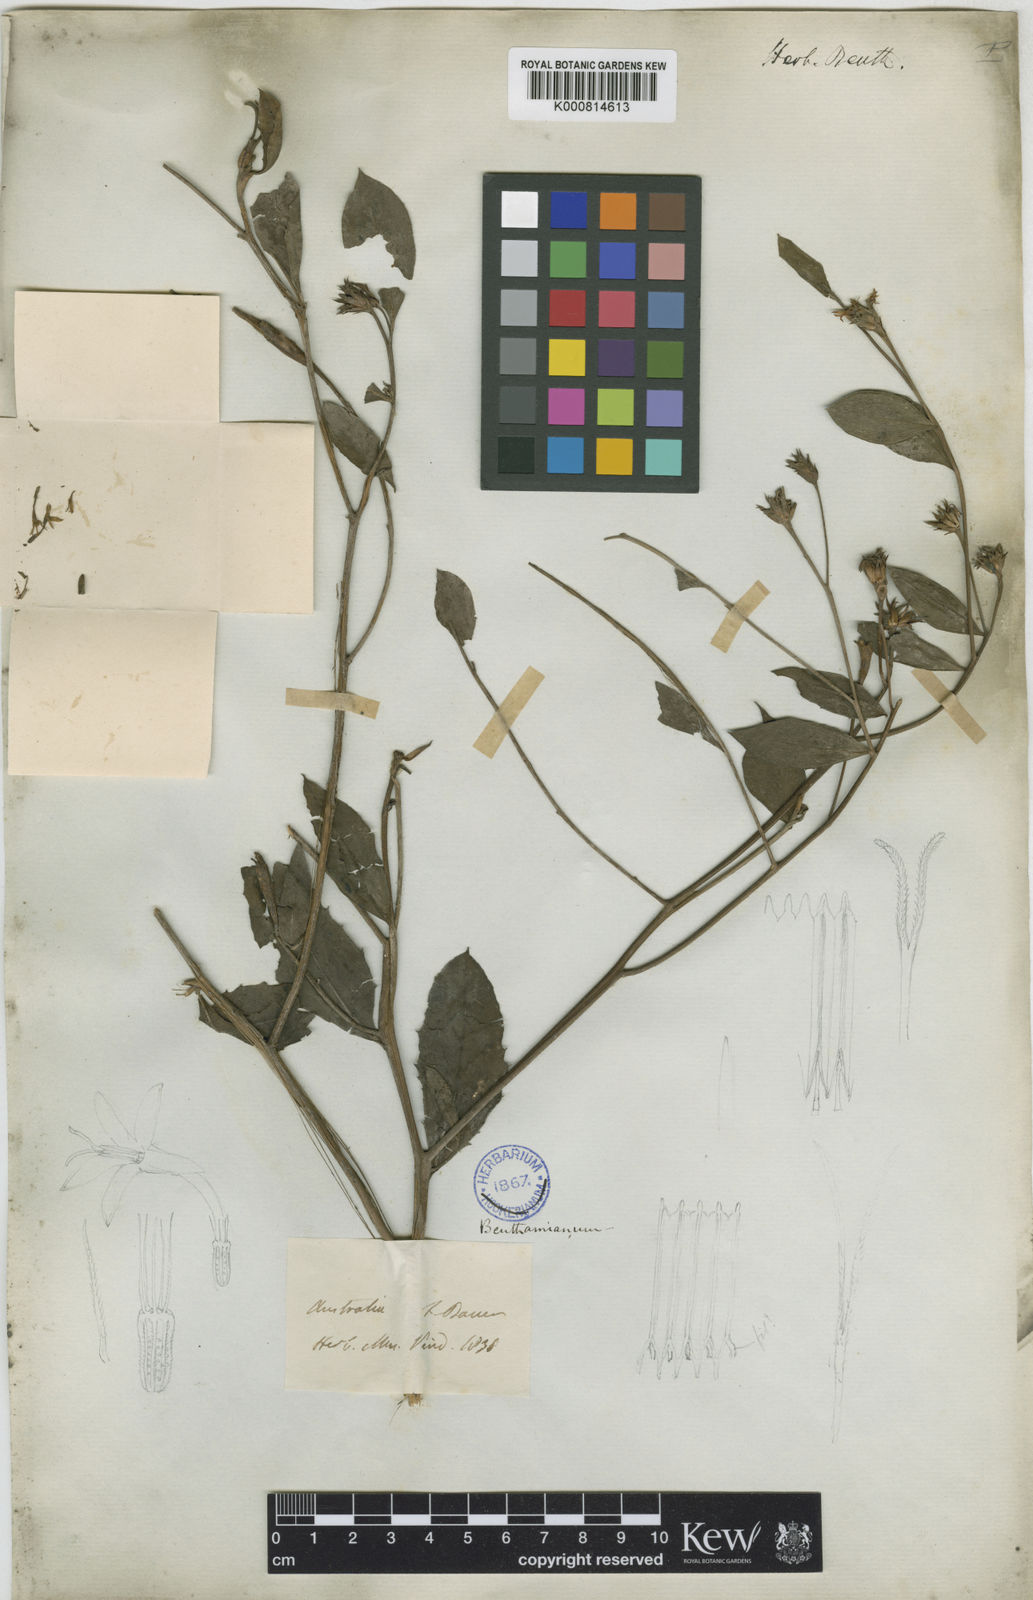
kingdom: Plantae
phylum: Tracheophyta
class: Magnoliopsida
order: Asterales
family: Asteraceae
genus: Pleurocarpaea
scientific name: Pleurocarpaea denticulata
